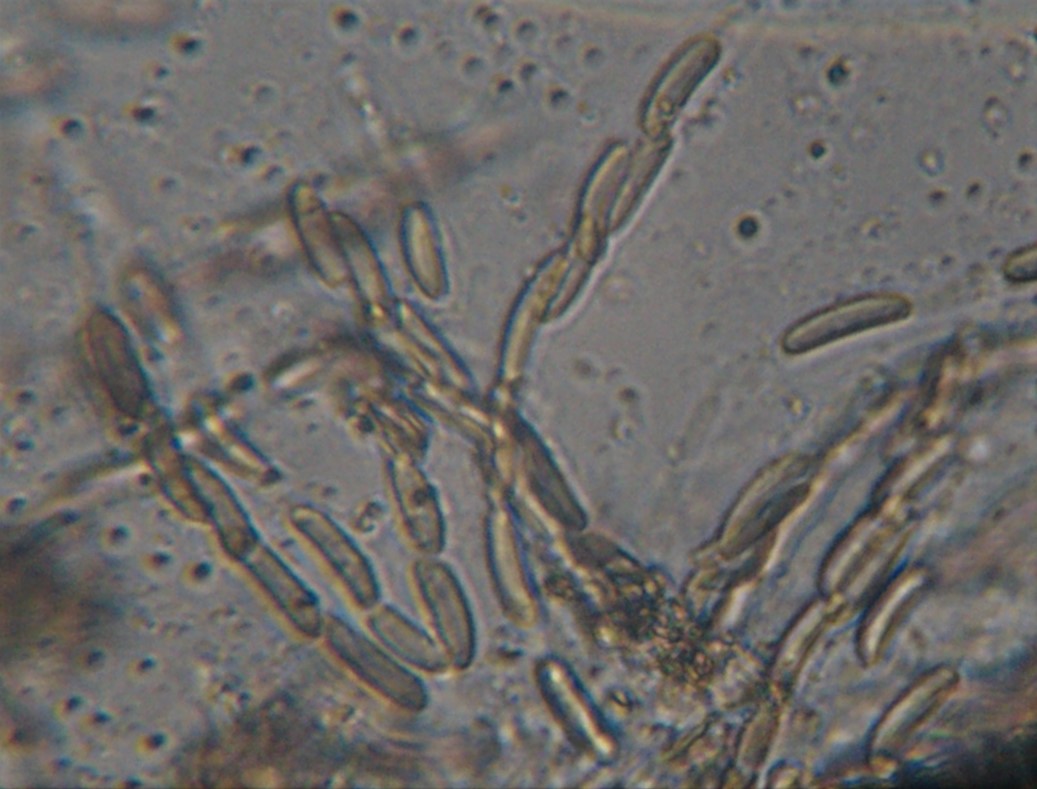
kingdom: Fungi
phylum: Ascomycota
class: Sordariomycetes
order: Xylariales
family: Diatrypaceae
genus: Eutypella
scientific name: Eutypella quaternata
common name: bøge-korsprik
